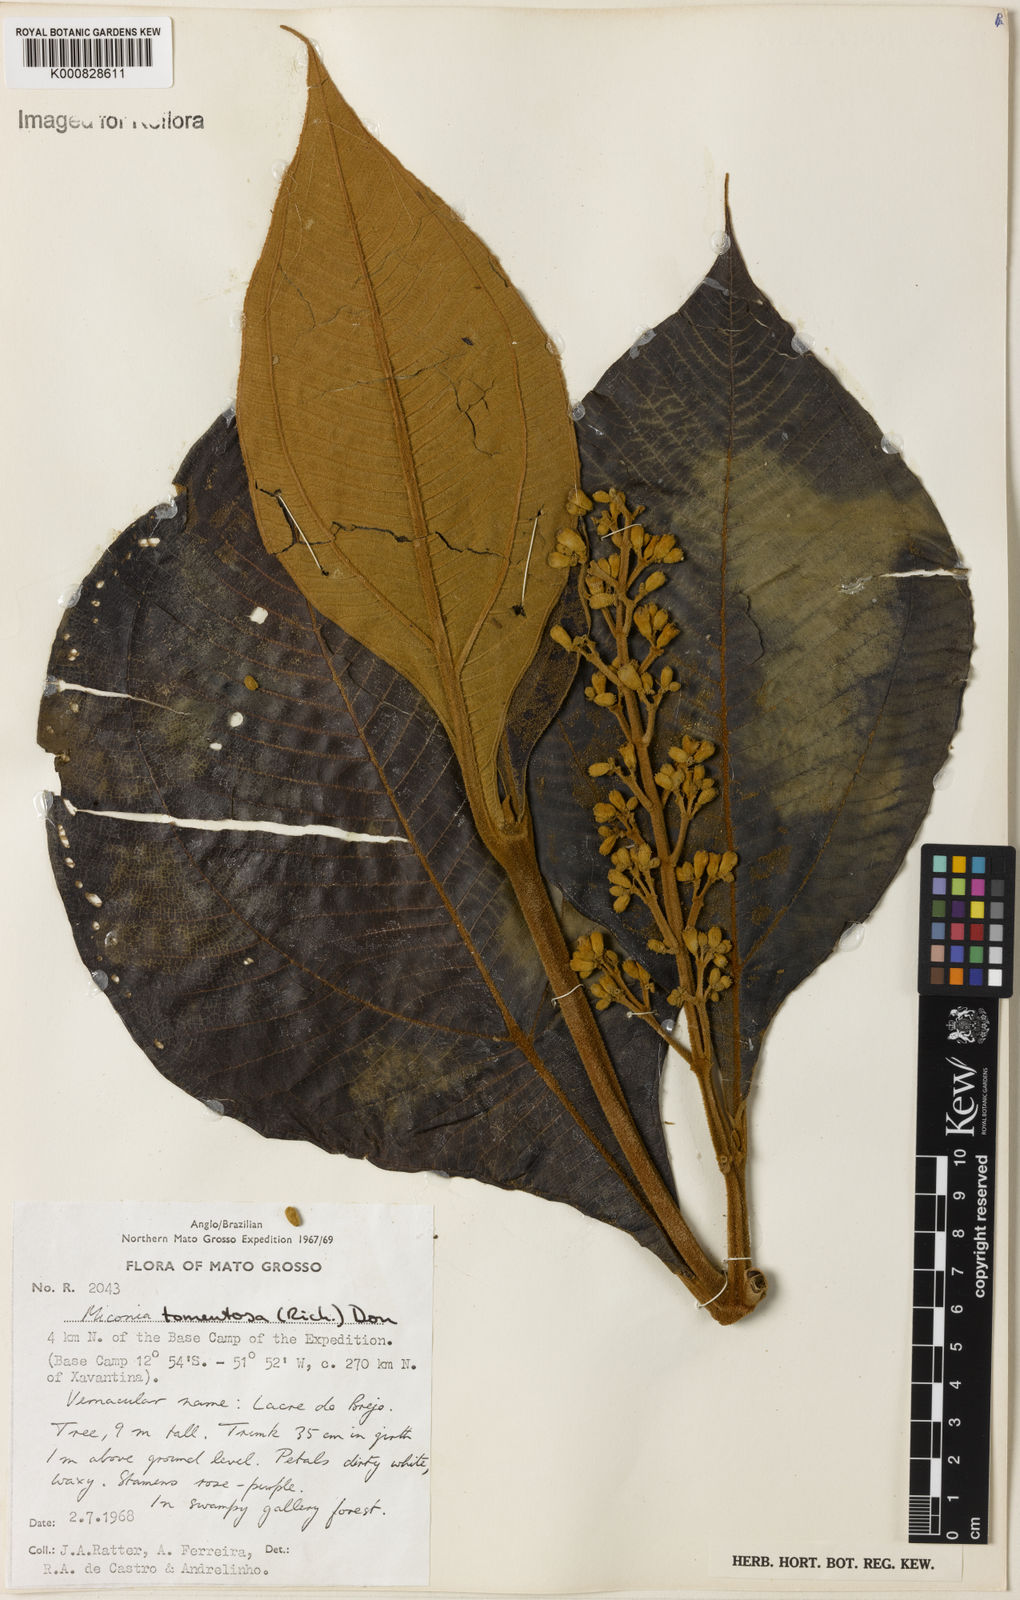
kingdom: Plantae
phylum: Tracheophyta
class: Magnoliopsida
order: Myrtales
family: Melastomataceae
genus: Miconia
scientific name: Miconia tomentosa
